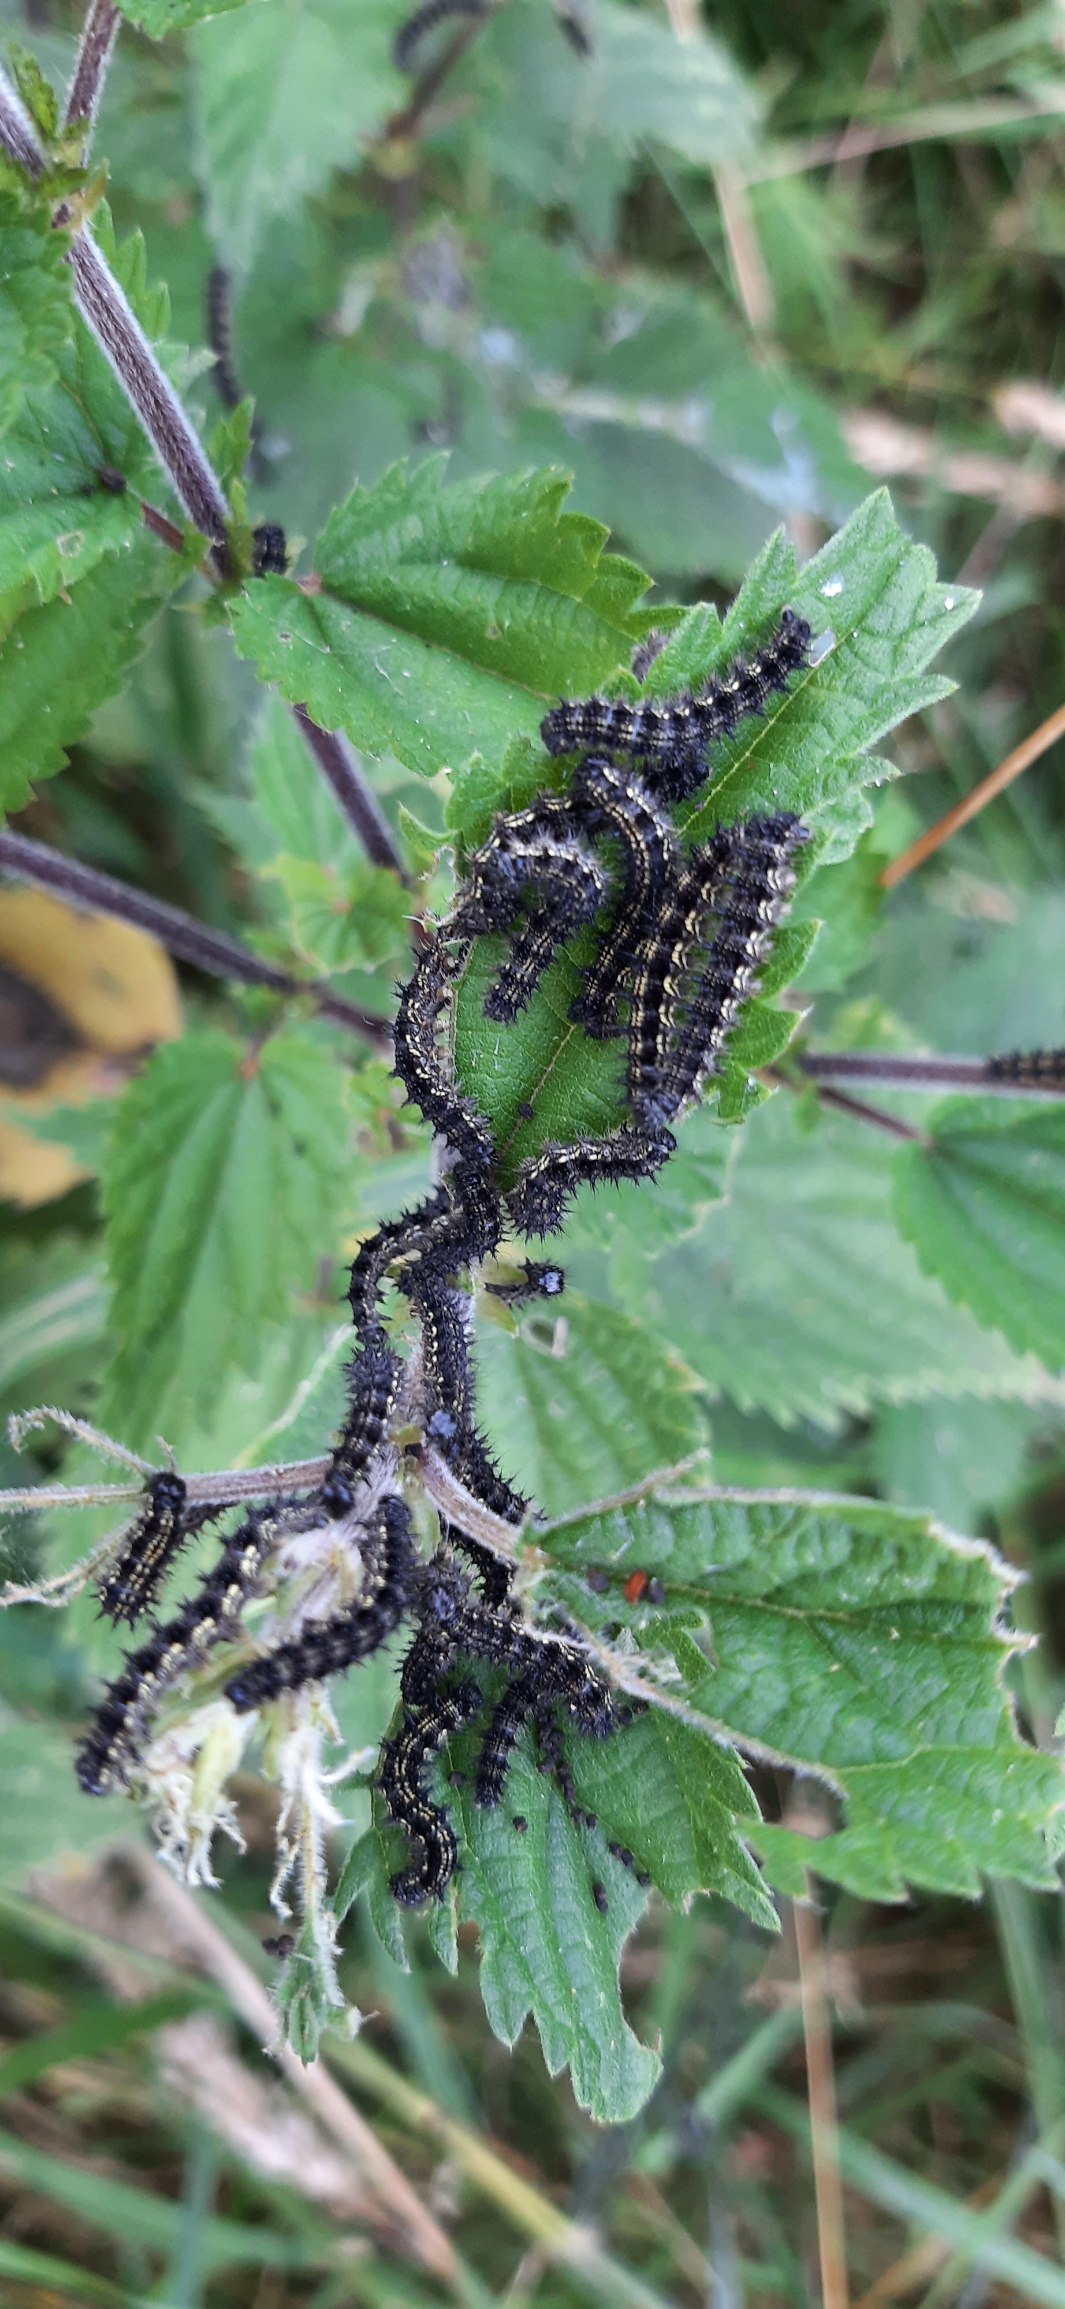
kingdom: Animalia
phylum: Arthropoda
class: Insecta
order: Lepidoptera
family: Nymphalidae
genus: Aglais
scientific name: Aglais urticae
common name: Nældens takvinge
